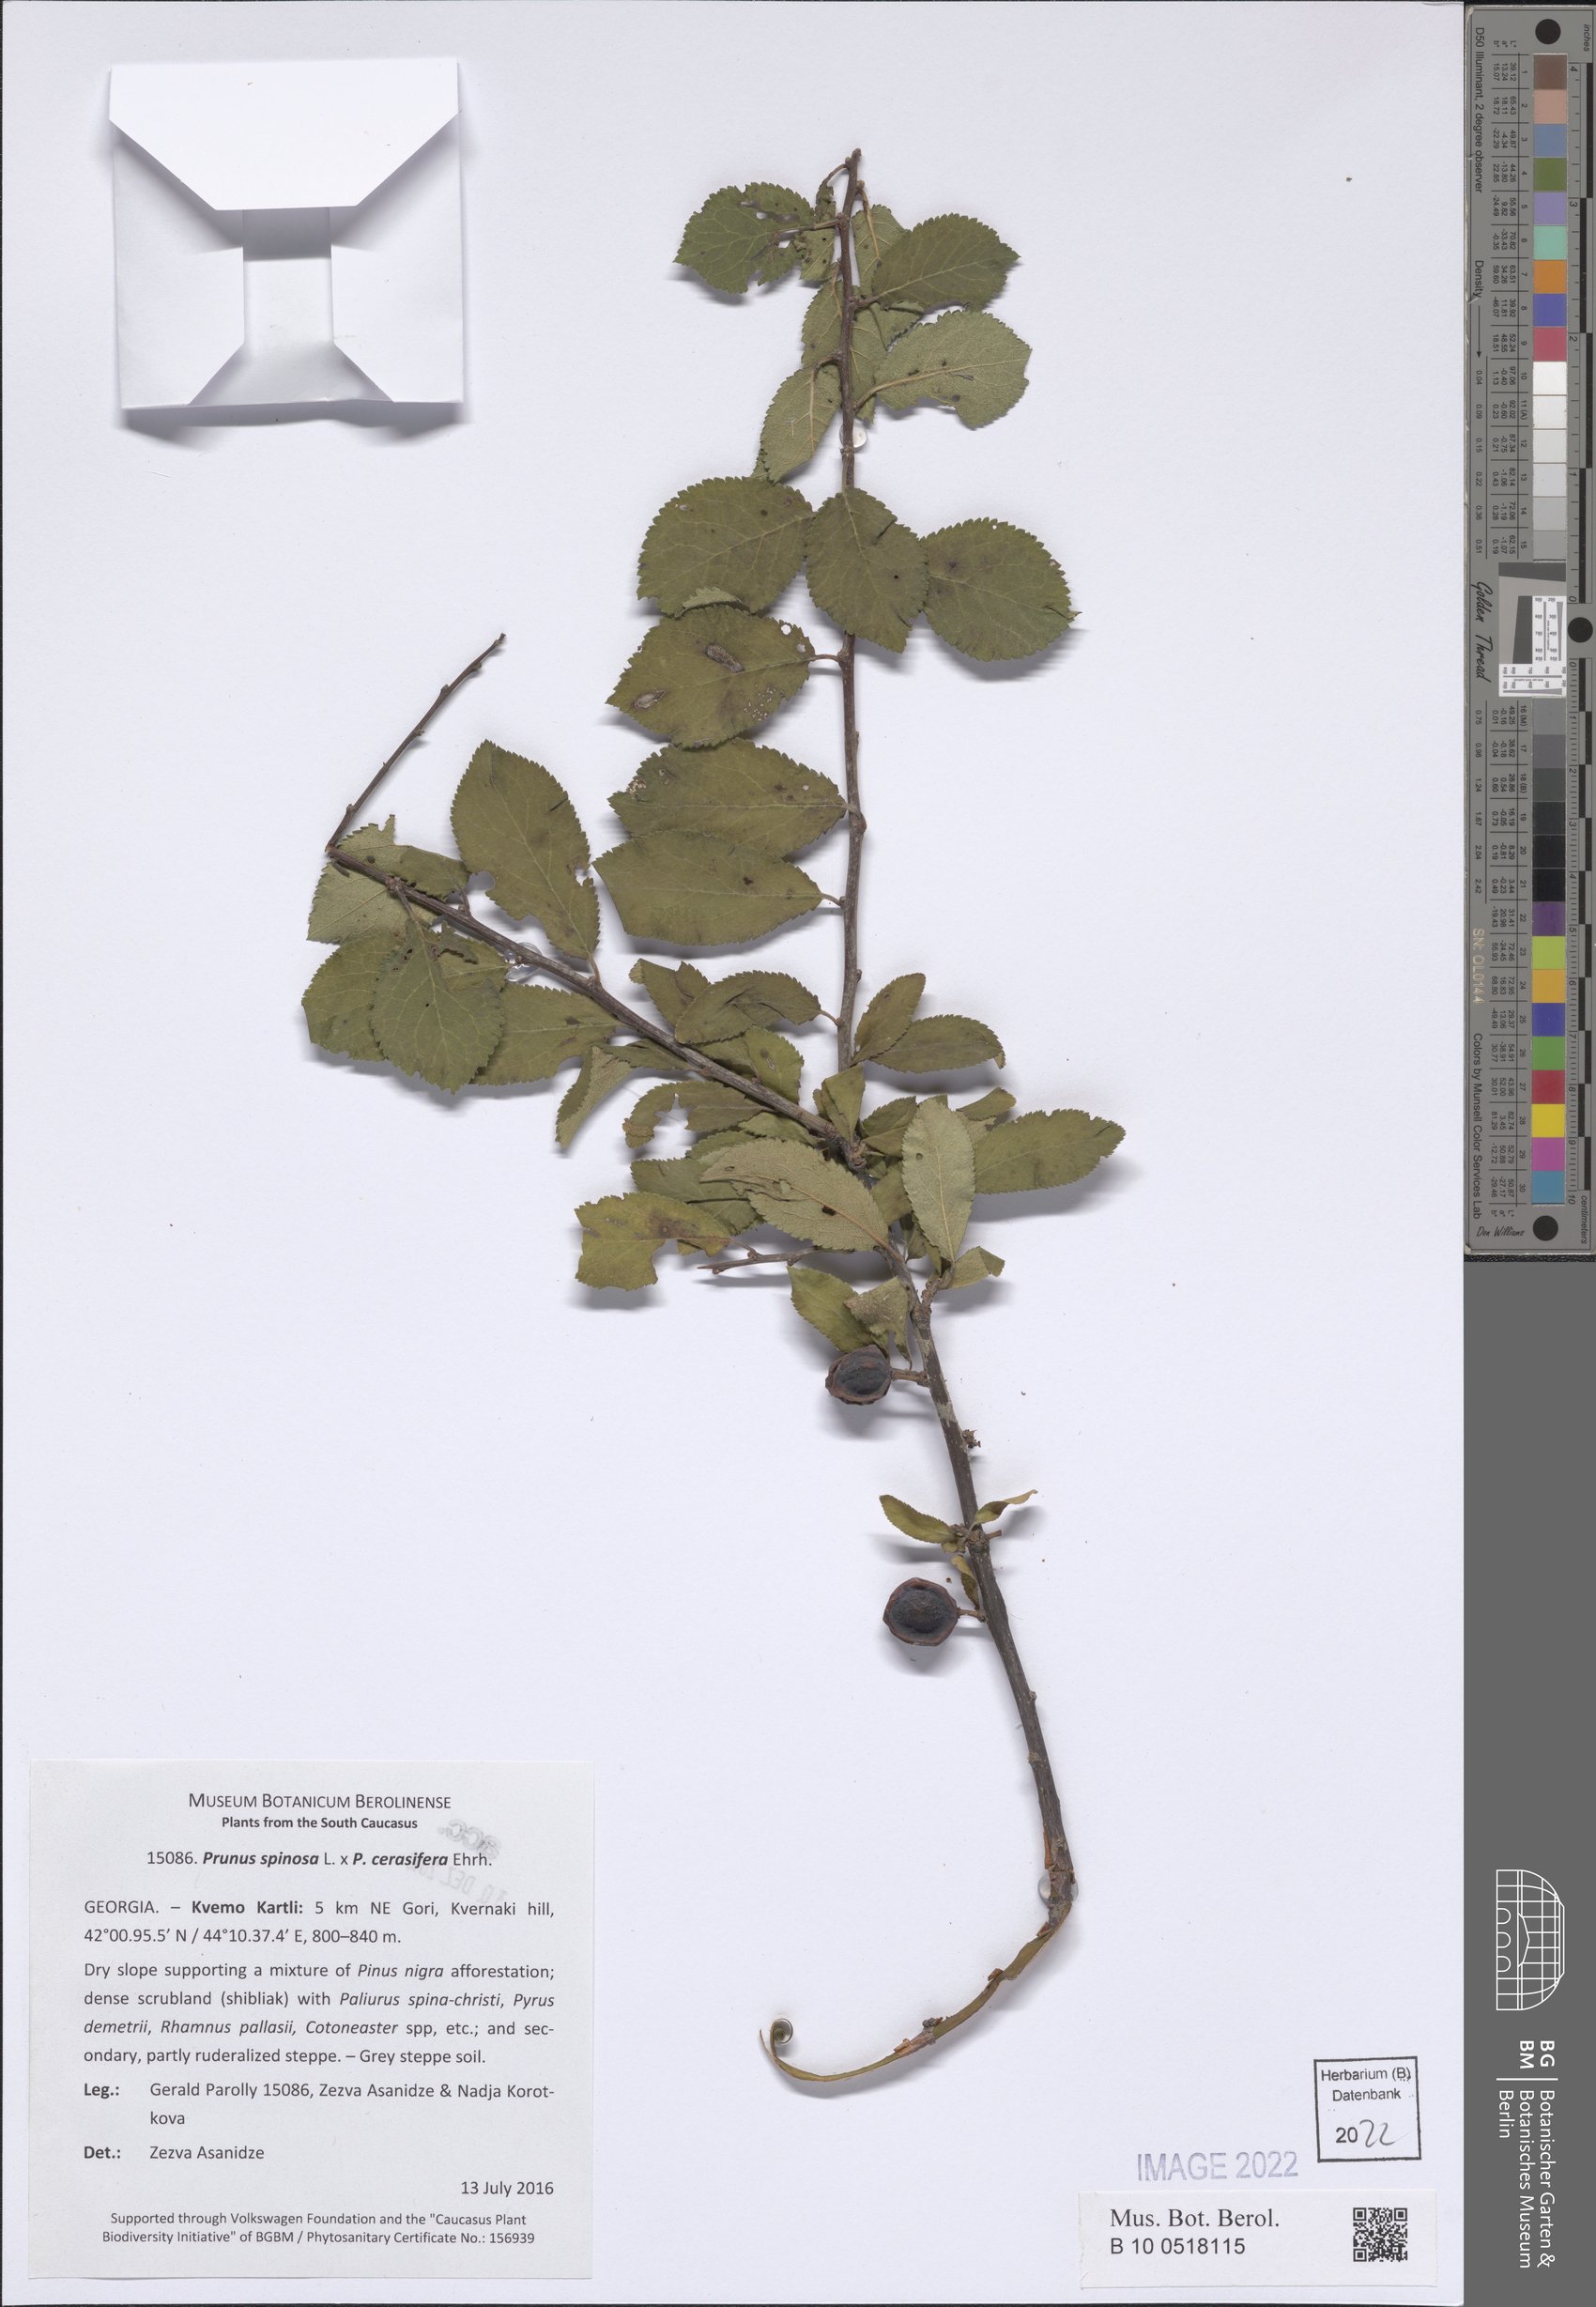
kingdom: Plantae
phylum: Tracheophyta
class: Magnoliopsida
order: Rosales
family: Rosaceae
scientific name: Rosaceae
